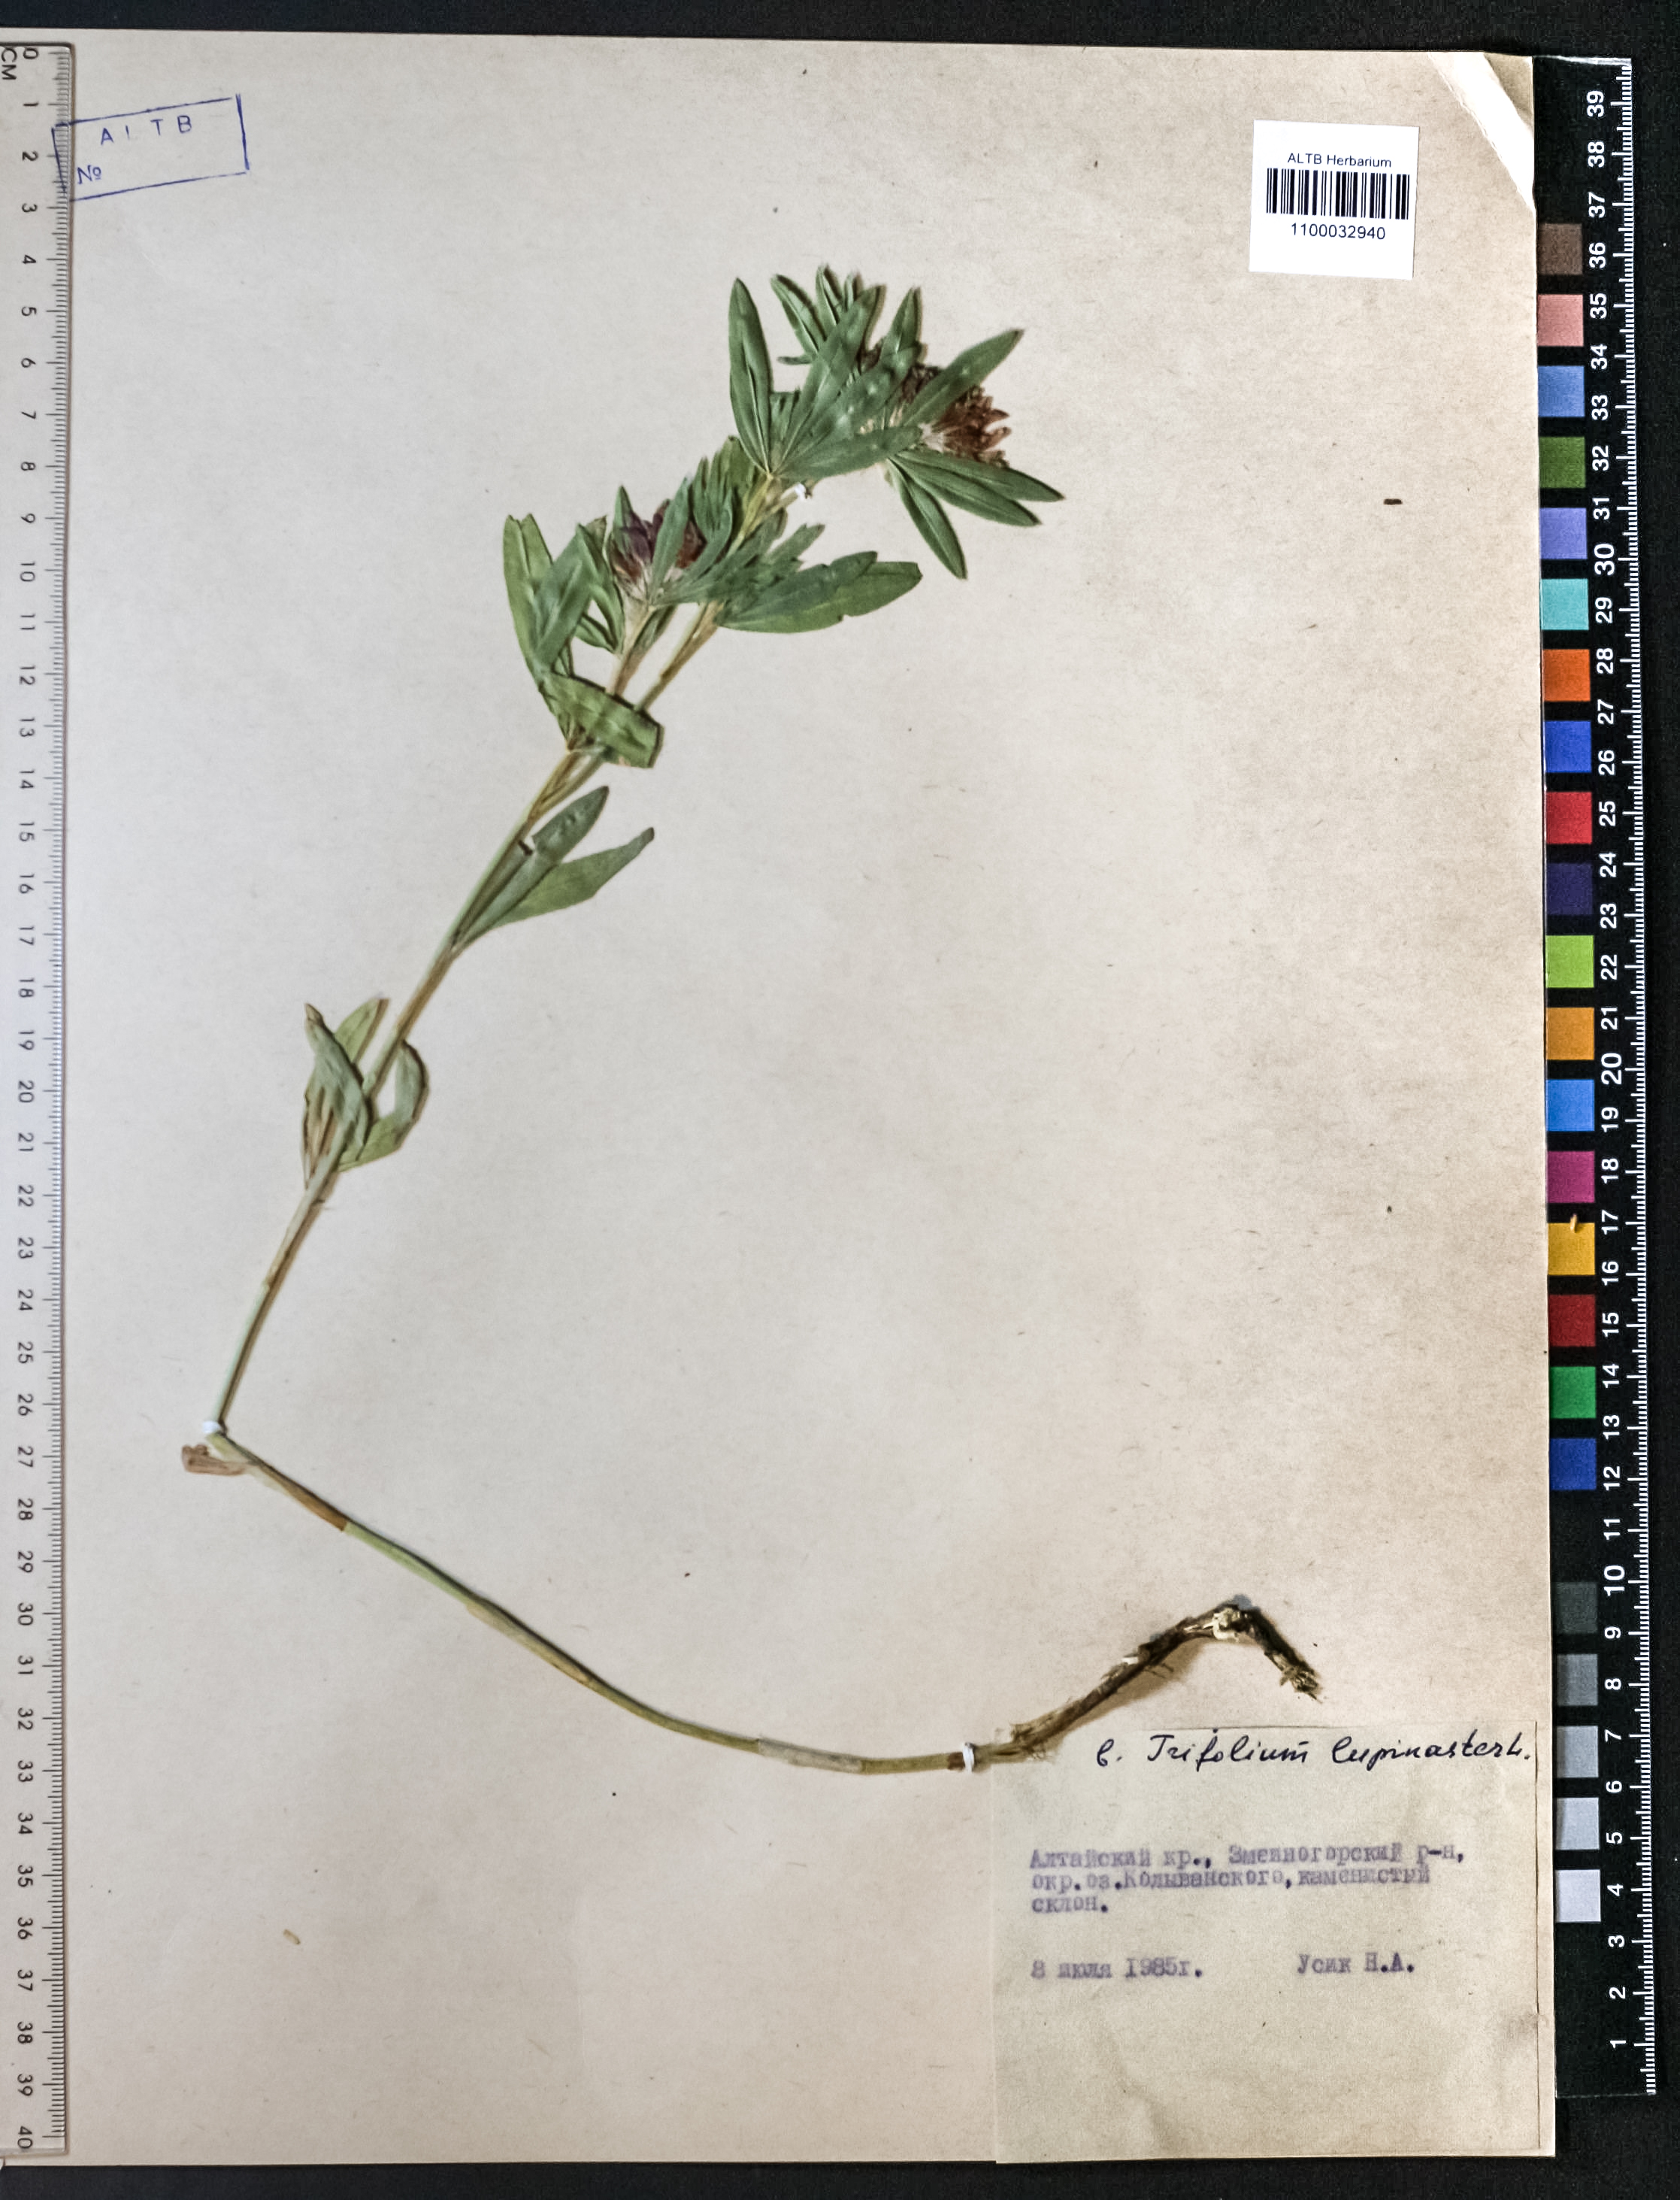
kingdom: Plantae
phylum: Tracheophyta
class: Magnoliopsida
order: Fabales
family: Fabaceae
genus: Trifolium
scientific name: Trifolium lupinaster
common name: Lupine clover
